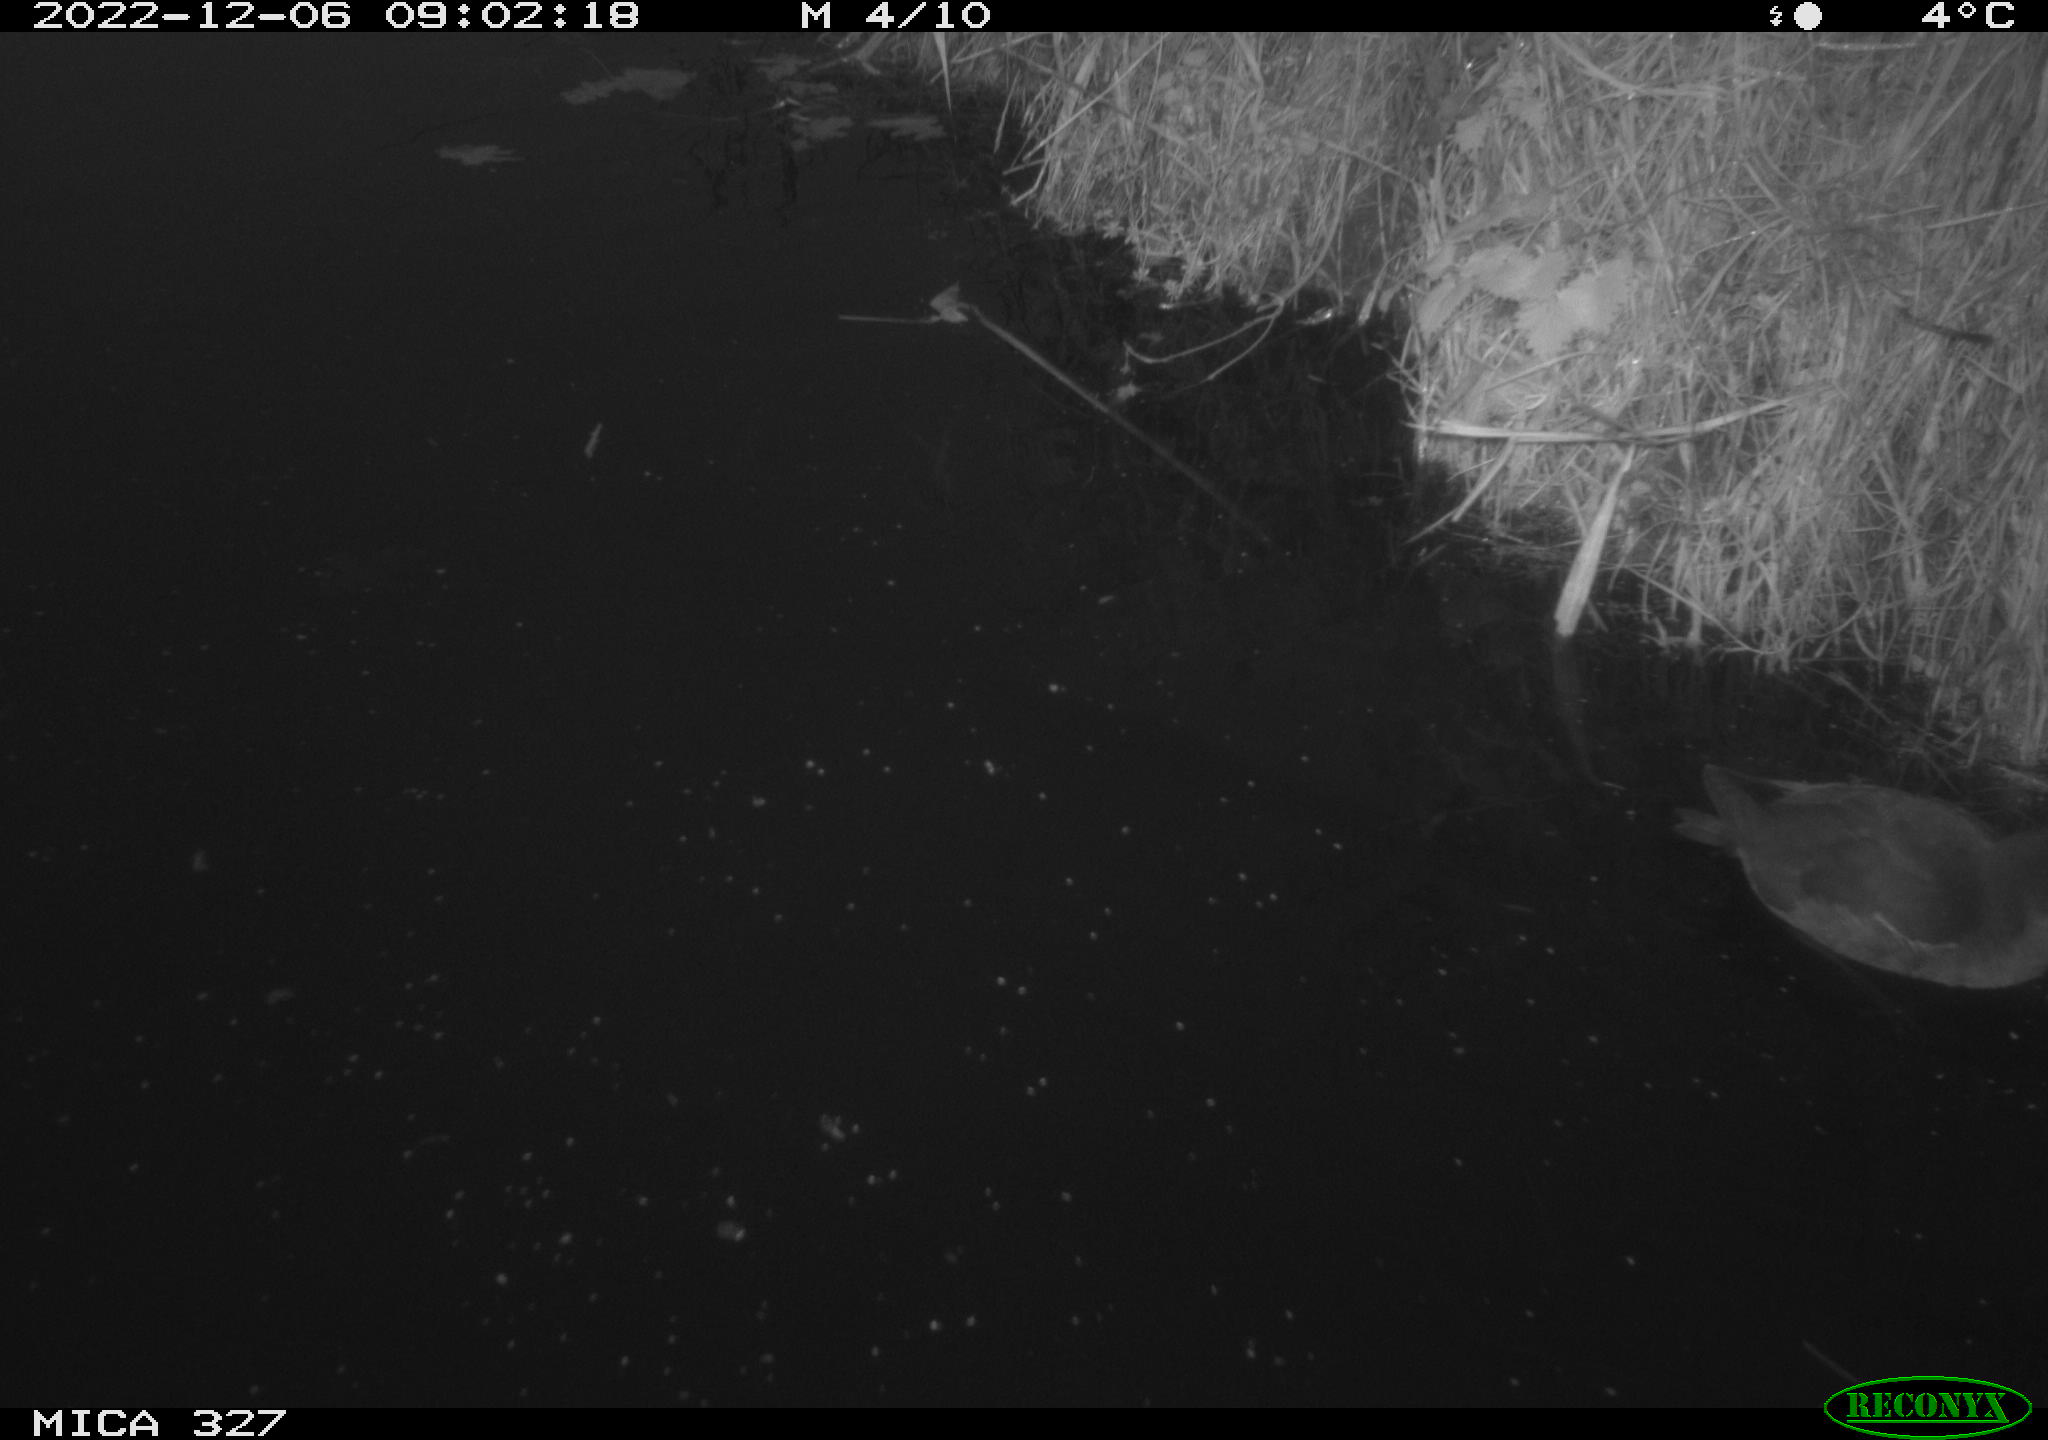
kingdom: Animalia
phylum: Chordata
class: Aves
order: Gruiformes
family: Rallidae
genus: Gallinula
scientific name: Gallinula chloropus
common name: Common moorhen
